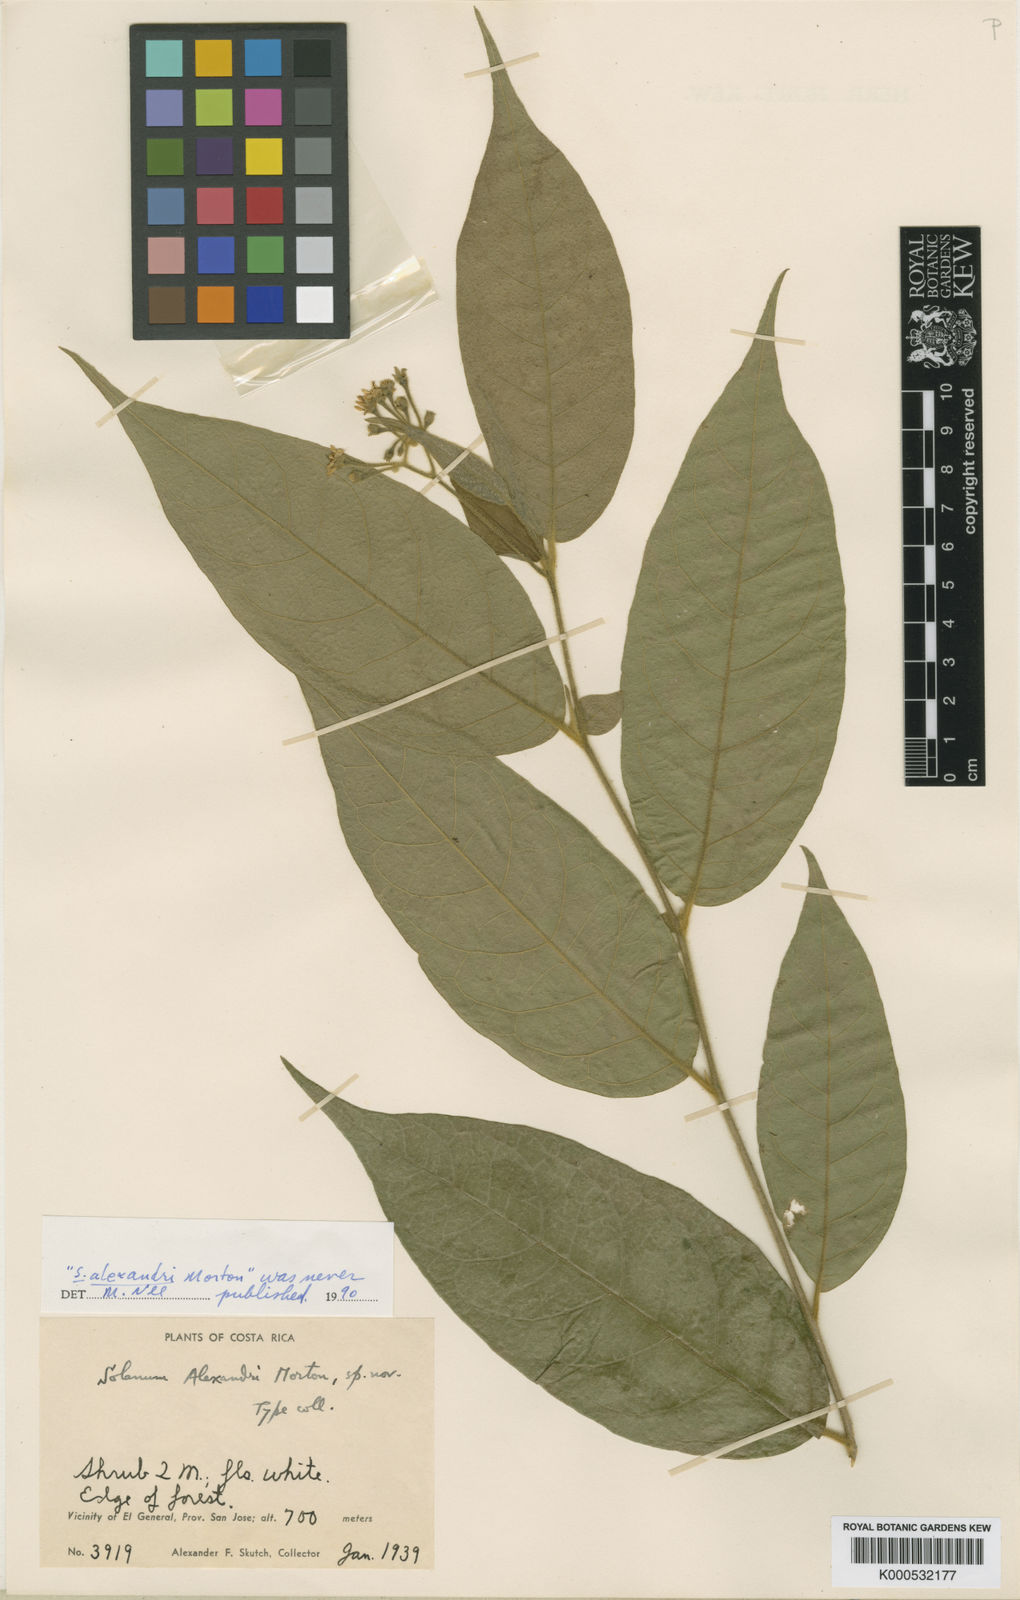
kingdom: Plantae
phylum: Tracheophyta
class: Magnoliopsida
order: Solanales
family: Solanaceae
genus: Solanum
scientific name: Solanum
